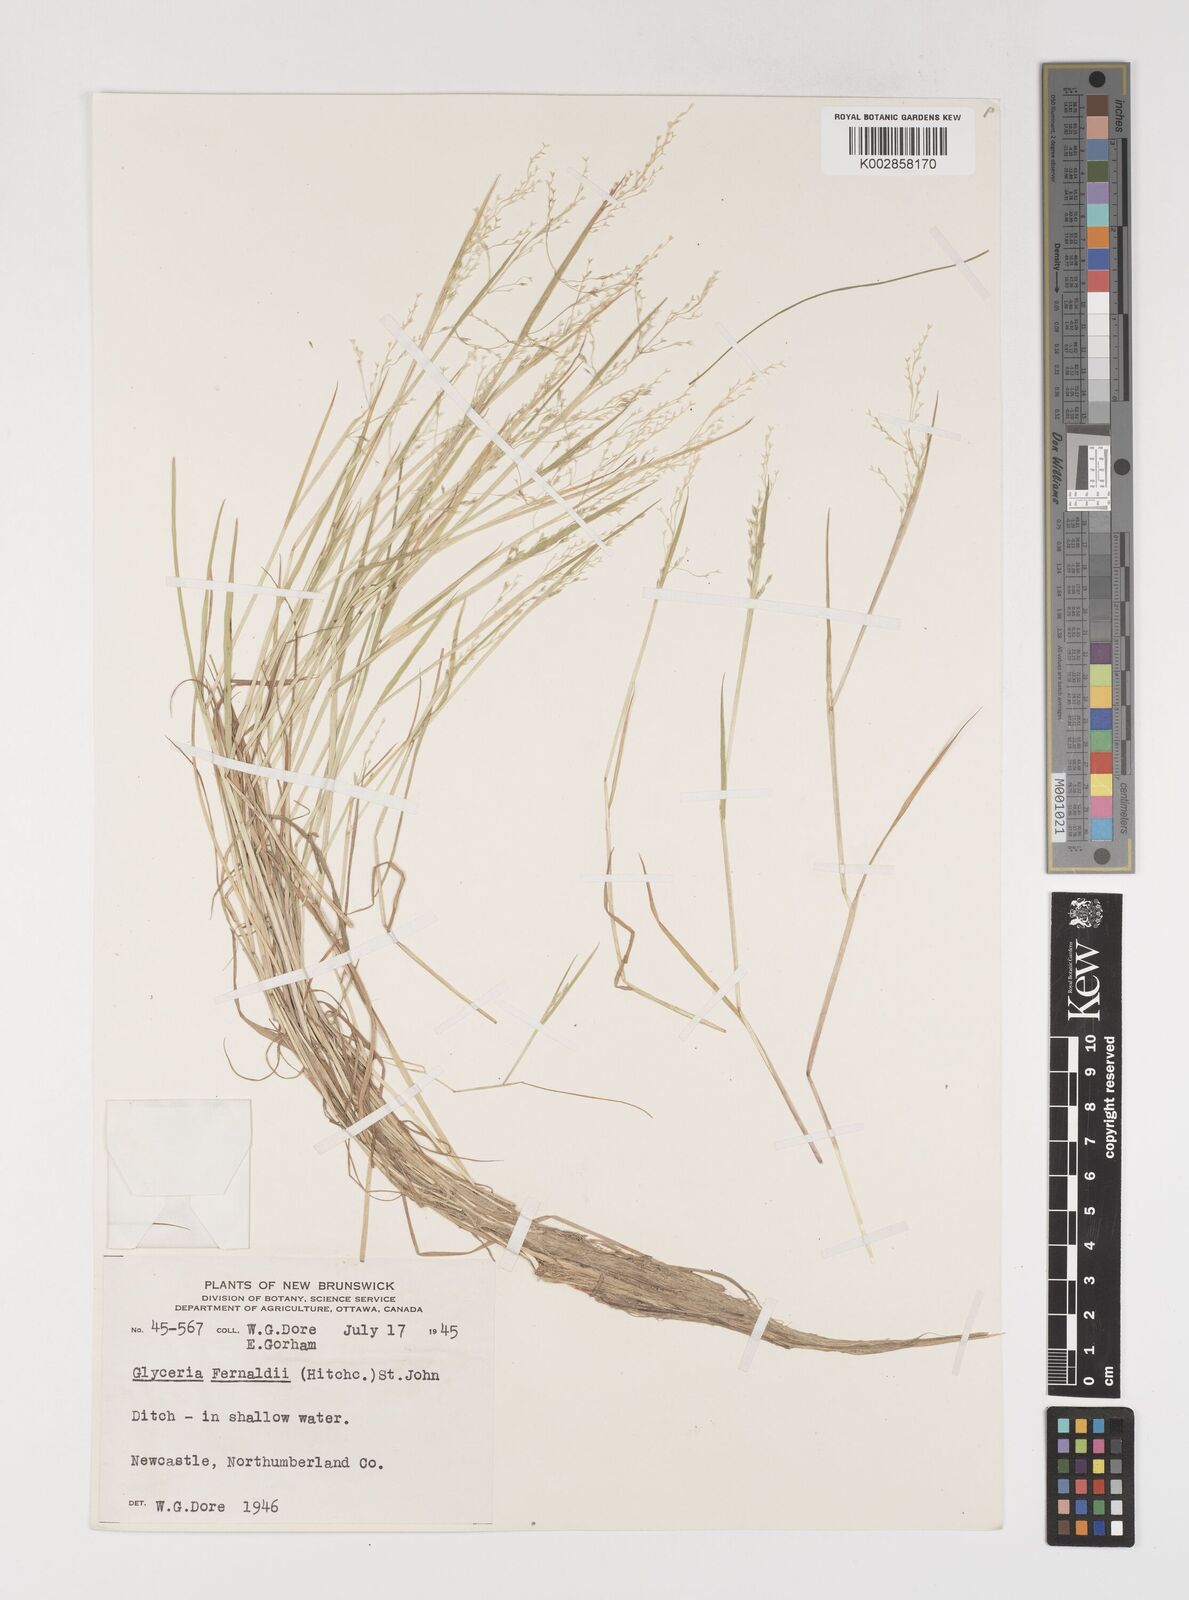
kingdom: Plantae
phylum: Tracheophyta
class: Liliopsida
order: Poales
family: Poaceae
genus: Torreyochloa
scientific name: Torreyochloa pallida
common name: Pale false mannagrass
